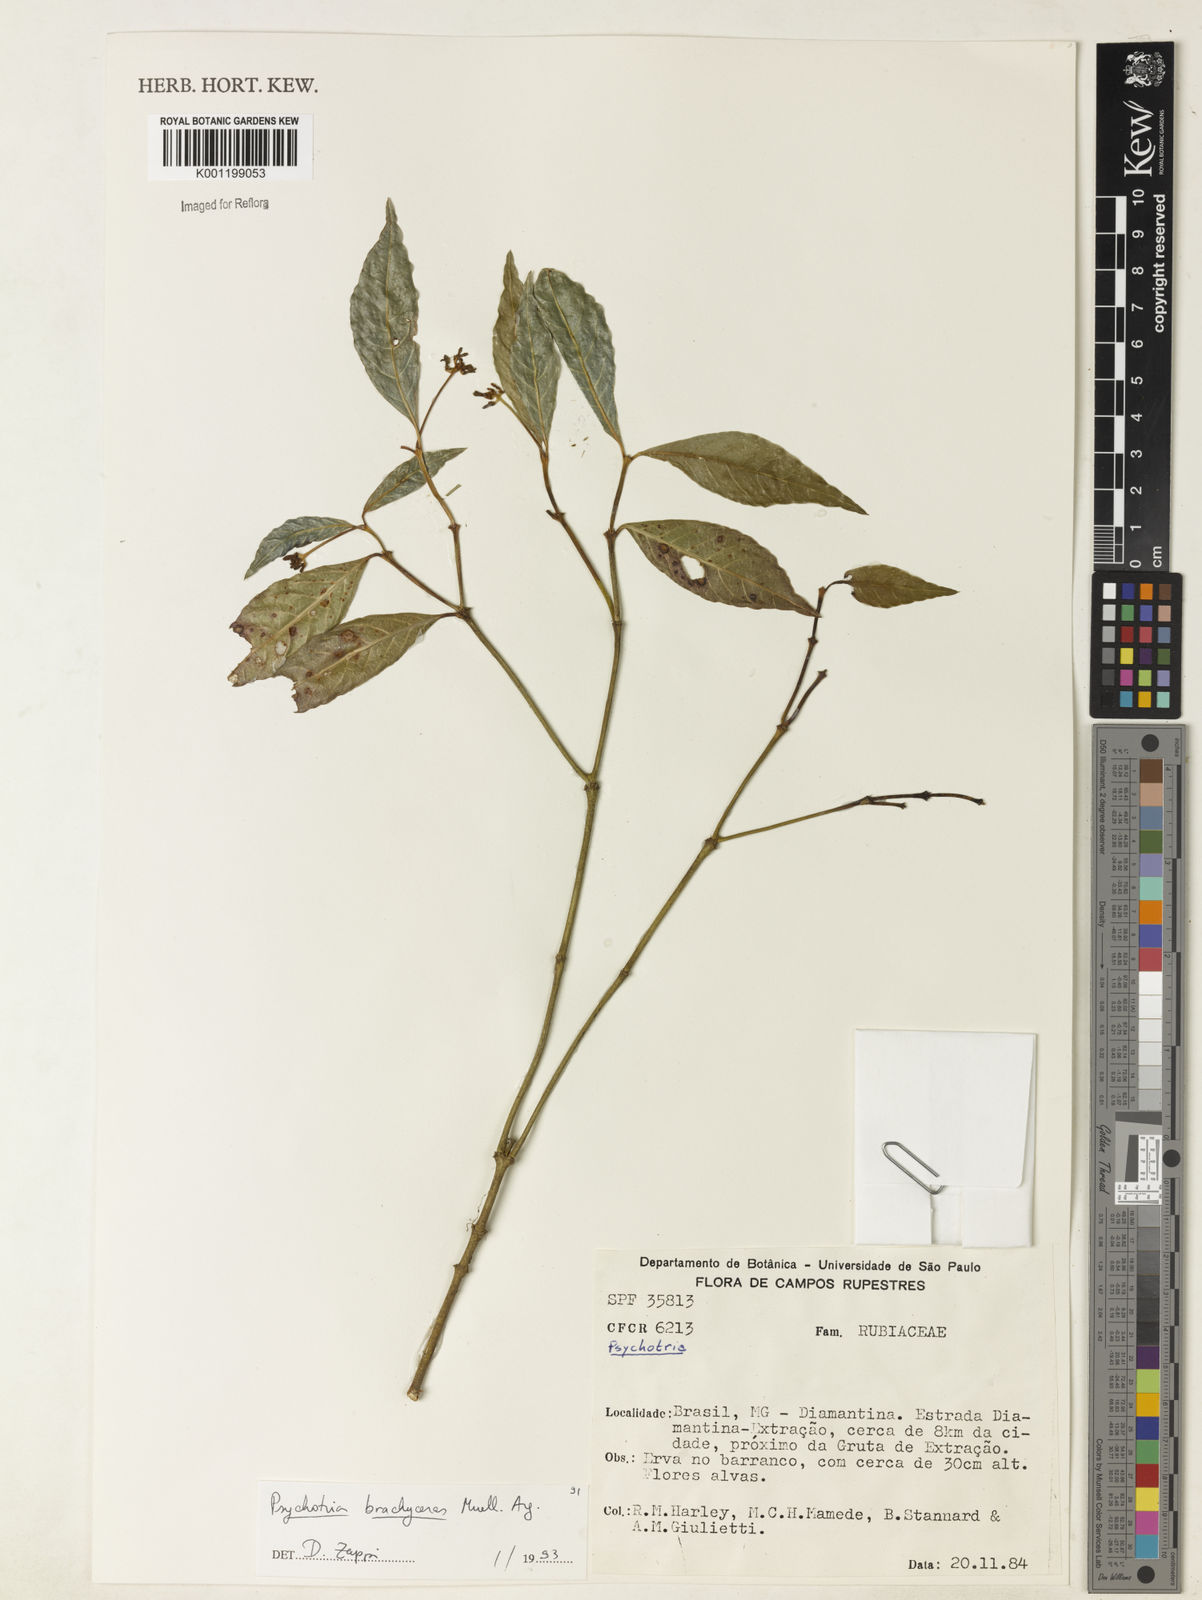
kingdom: Plantae
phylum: Tracheophyta
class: Magnoliopsida
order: Gentianales
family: Rubiaceae
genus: Psychotria
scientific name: Psychotria
